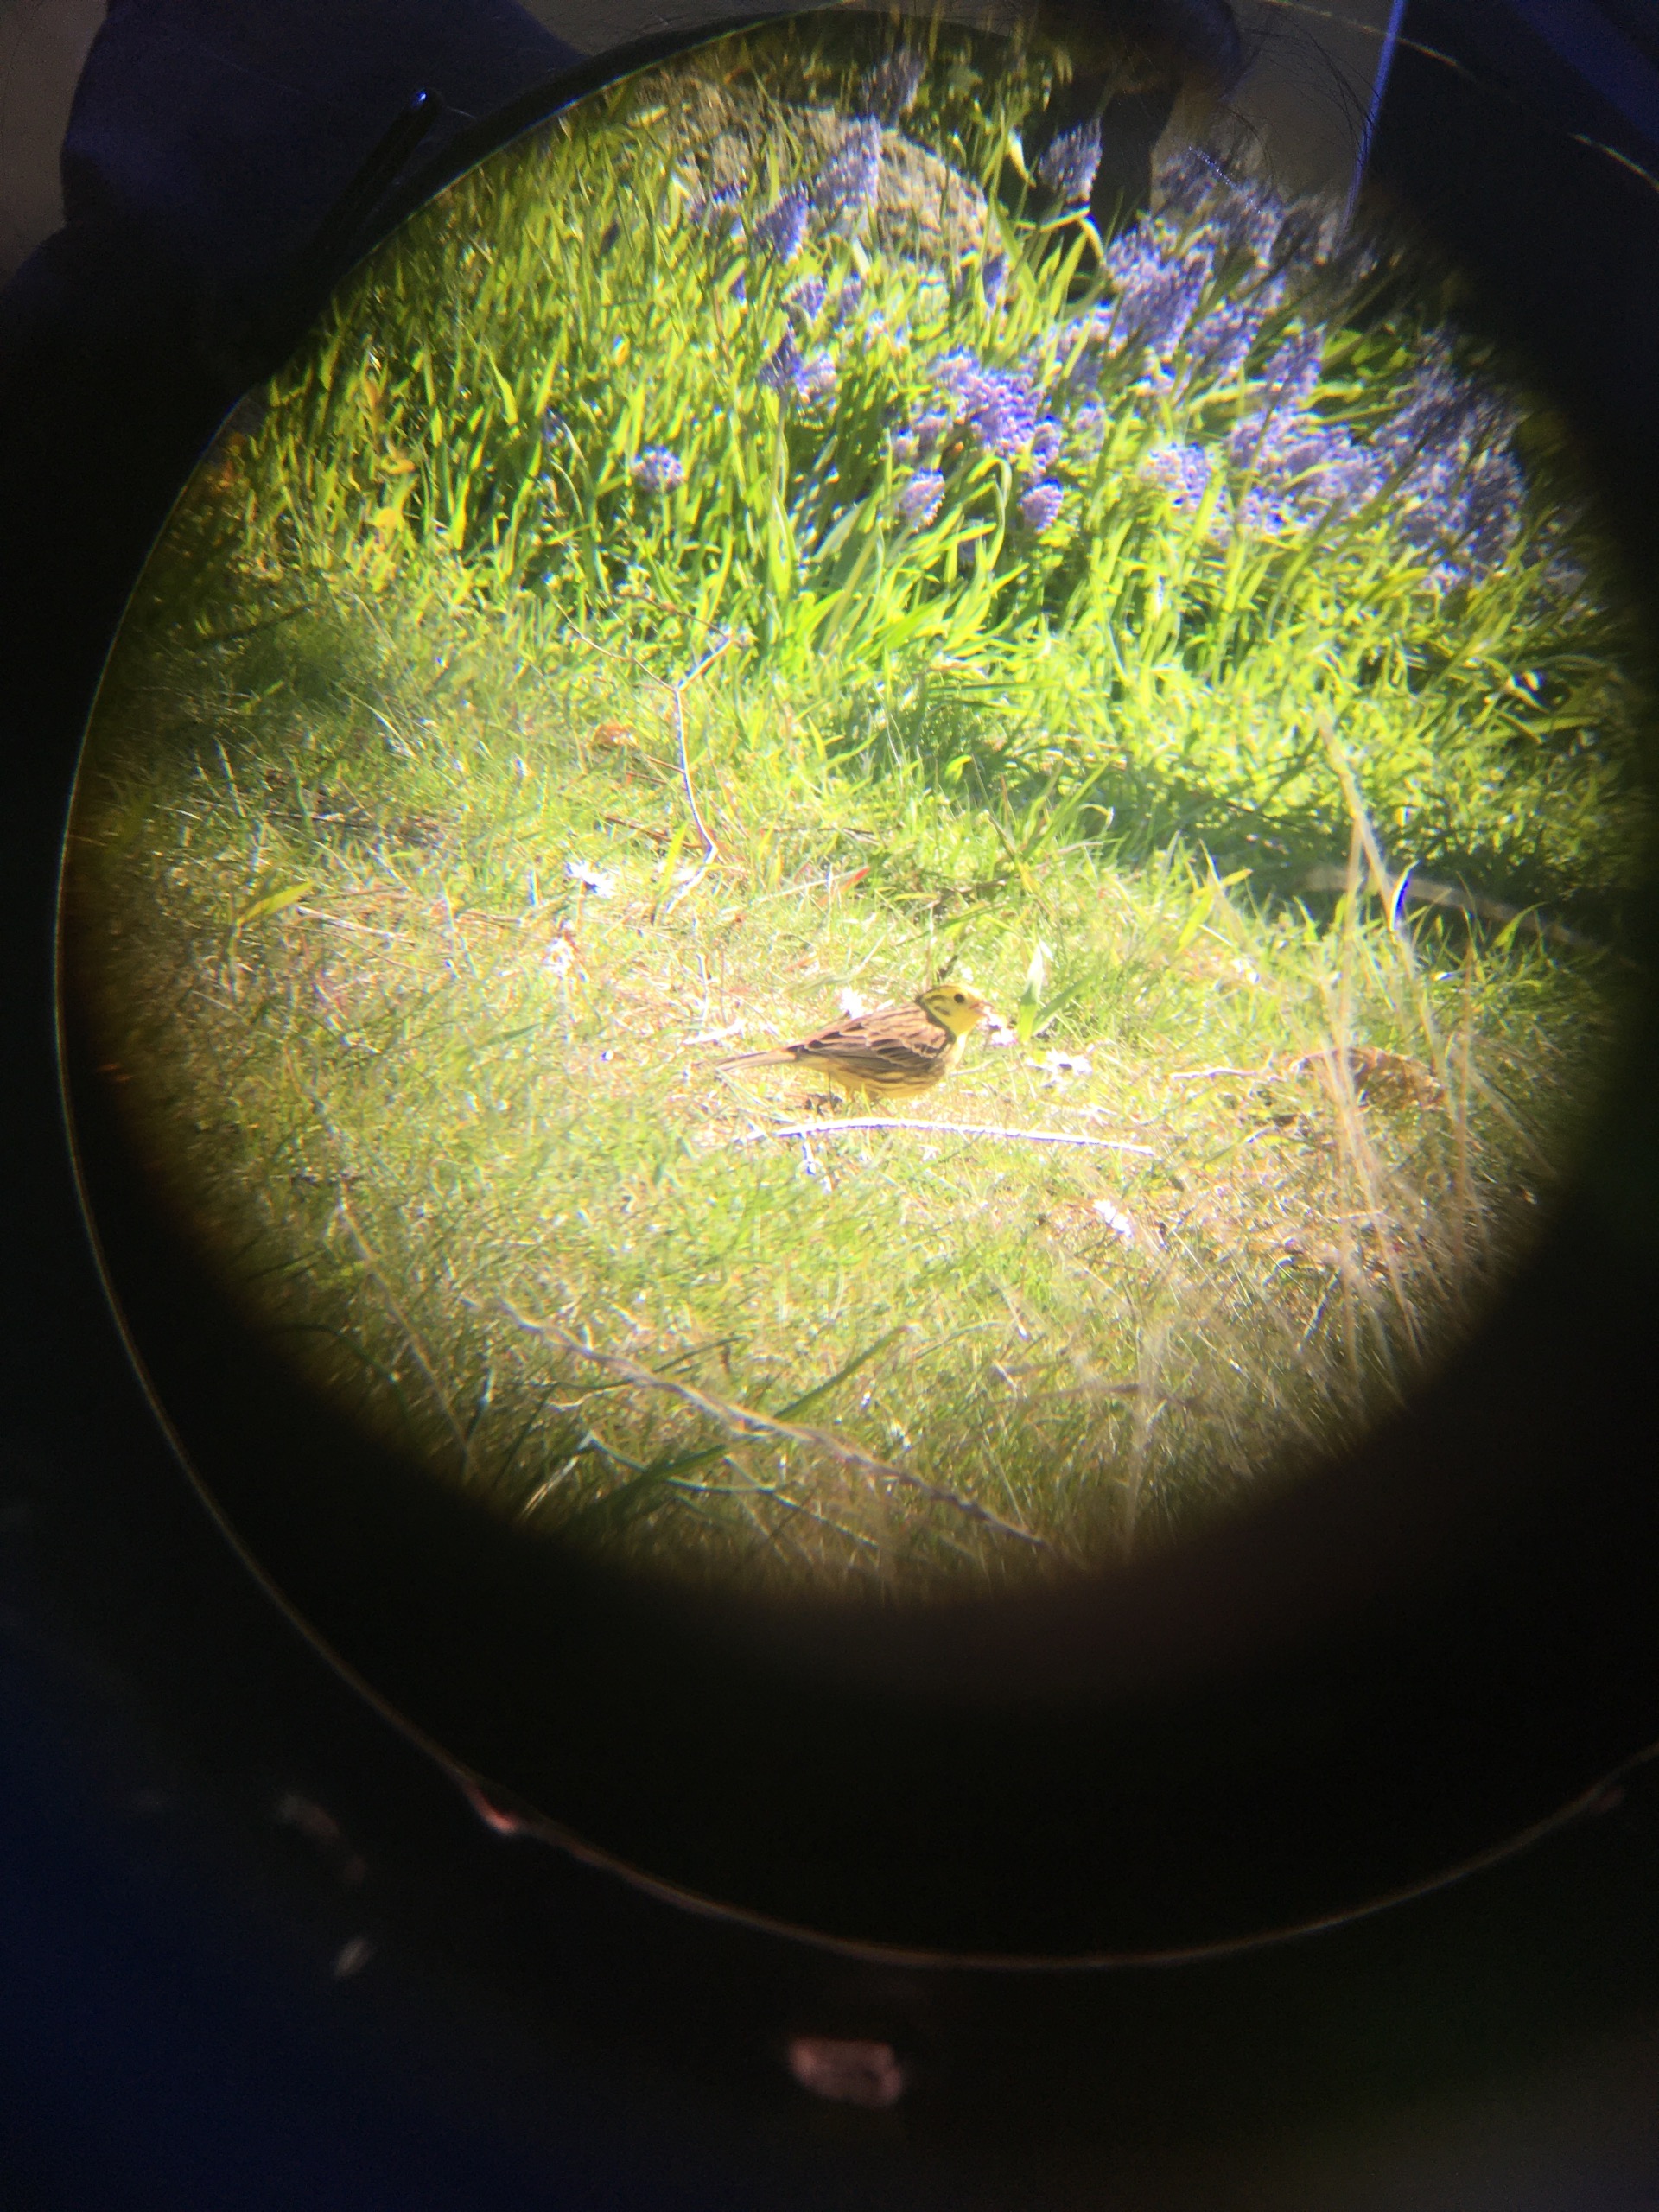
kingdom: Animalia
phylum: Chordata
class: Aves
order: Passeriformes
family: Emberizidae
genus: Emberiza
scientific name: Emberiza citrinella
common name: Gulspurv
